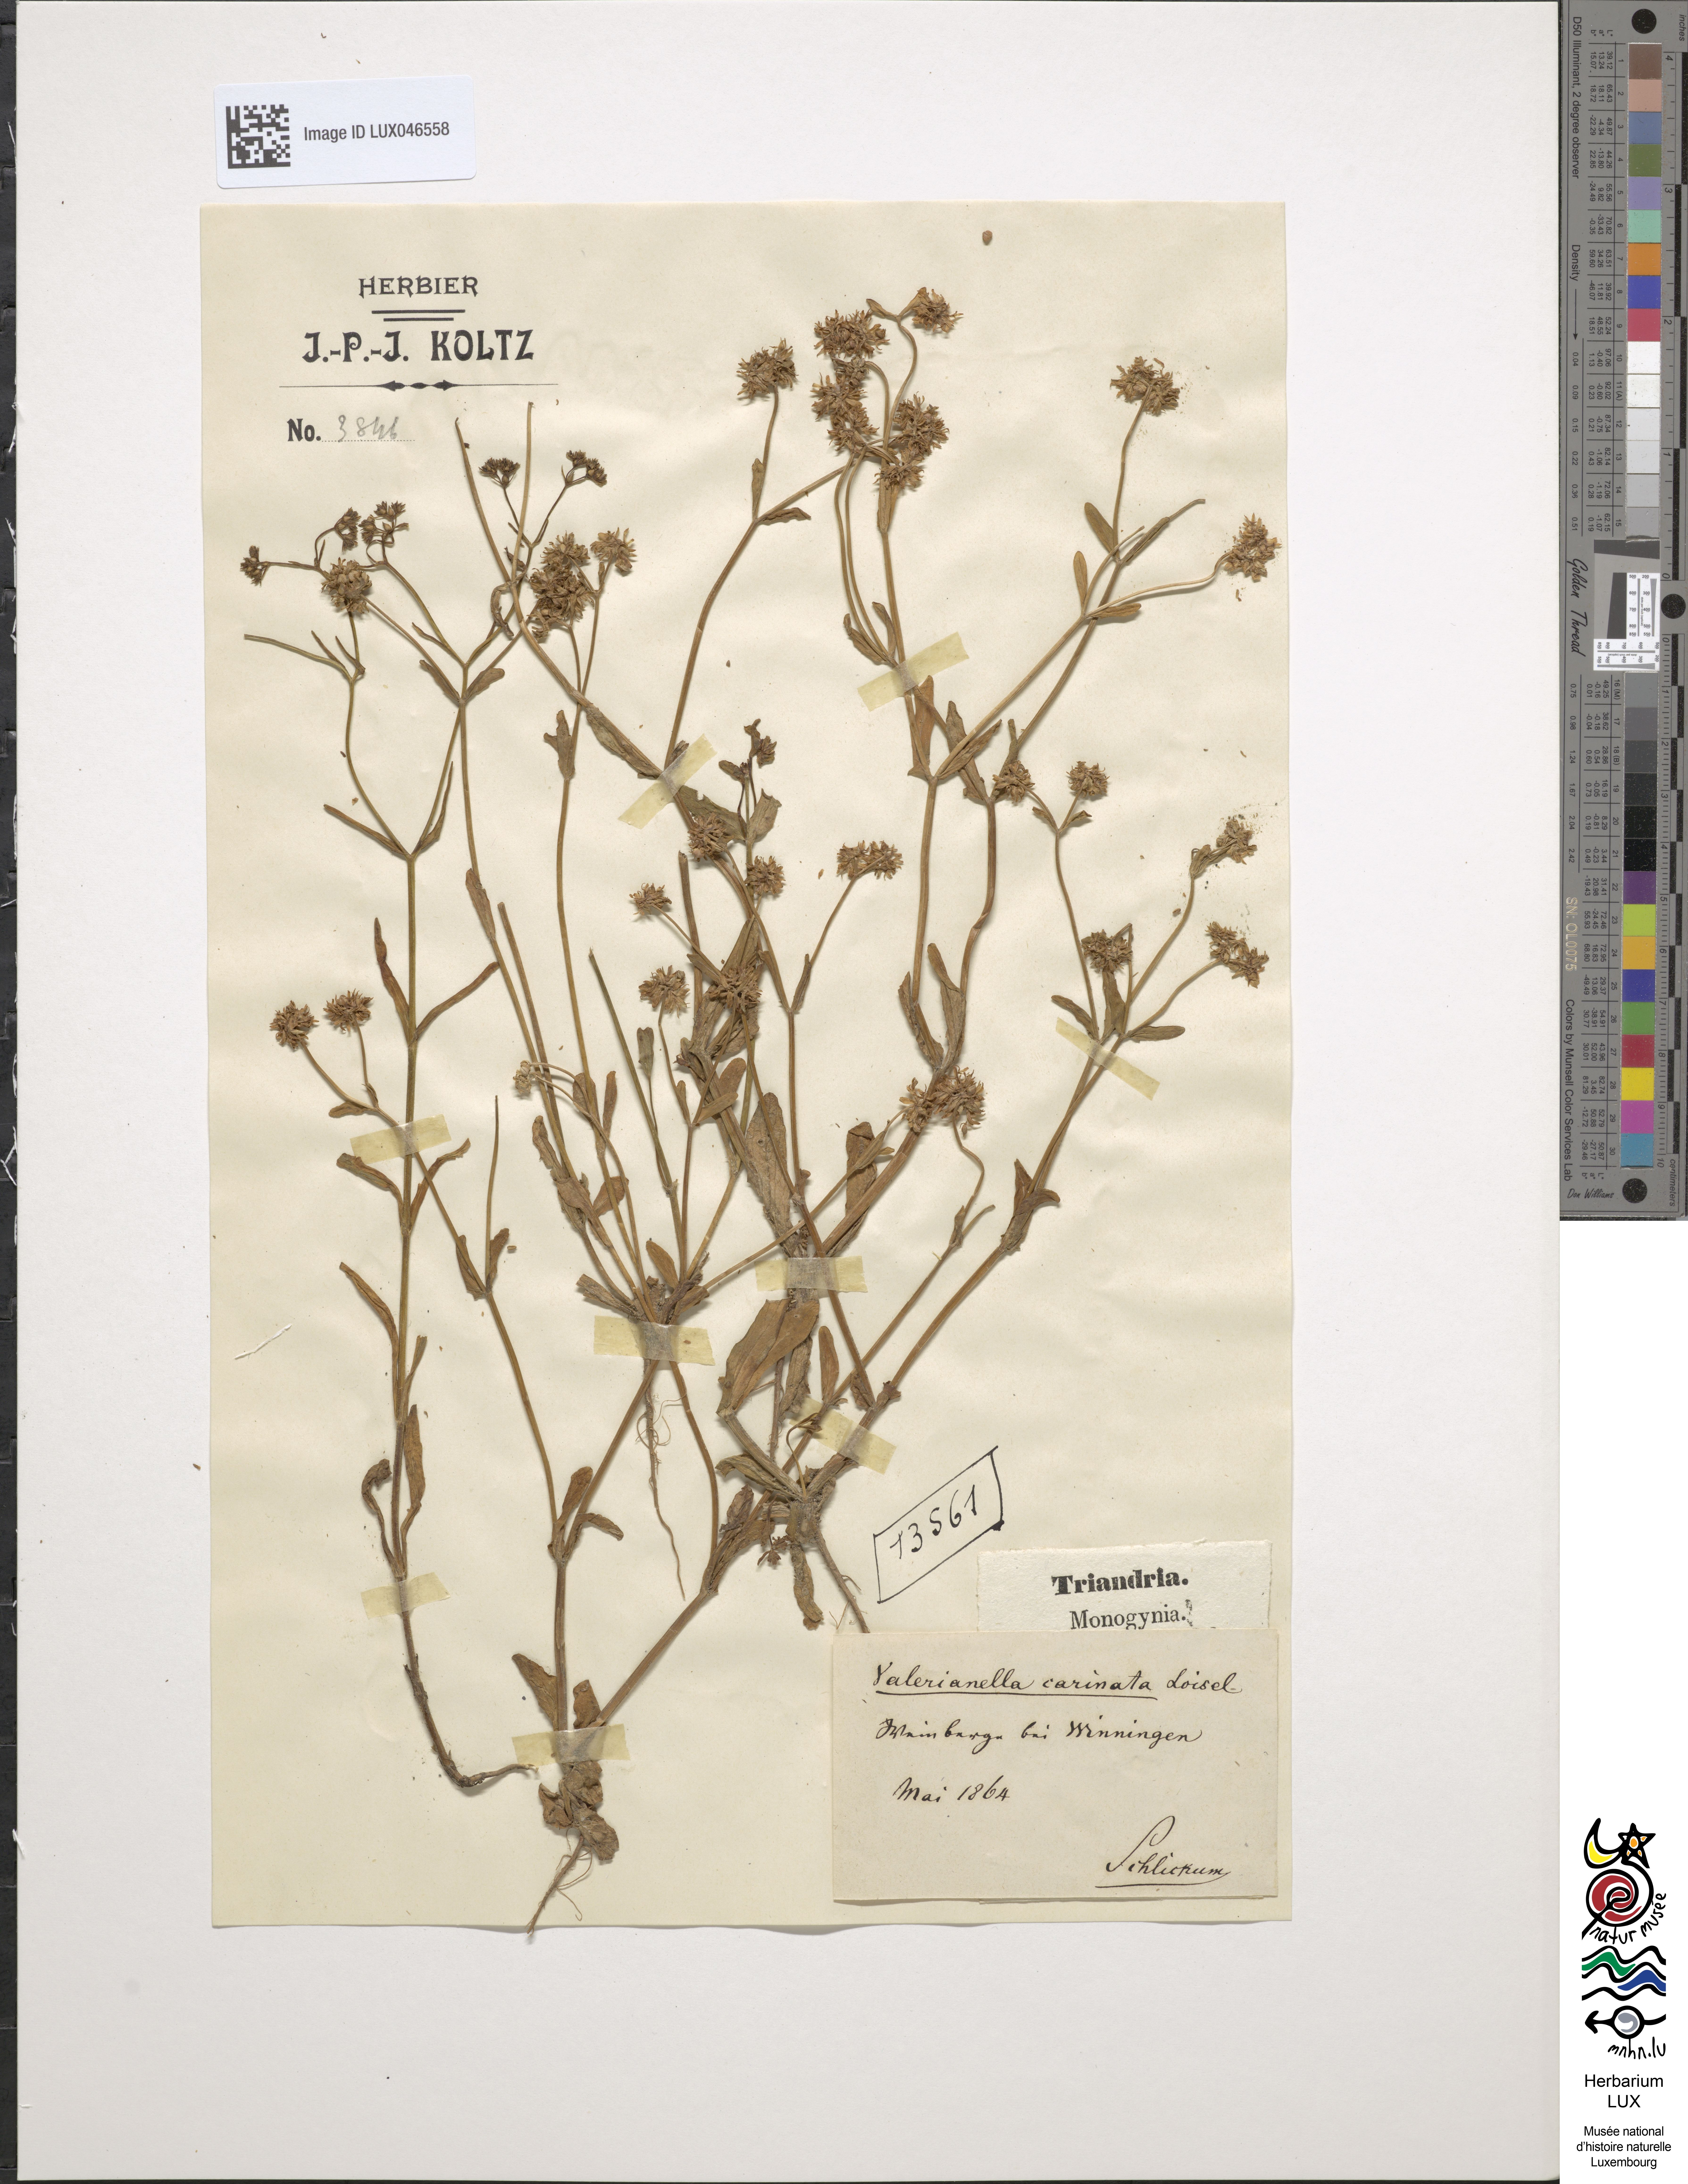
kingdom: Plantae
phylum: Tracheophyta
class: Magnoliopsida
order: Dipsacales
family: Caprifoliaceae
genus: Valerianella
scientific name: Valerianella carinata
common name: Keeled-fruited cornsalad
